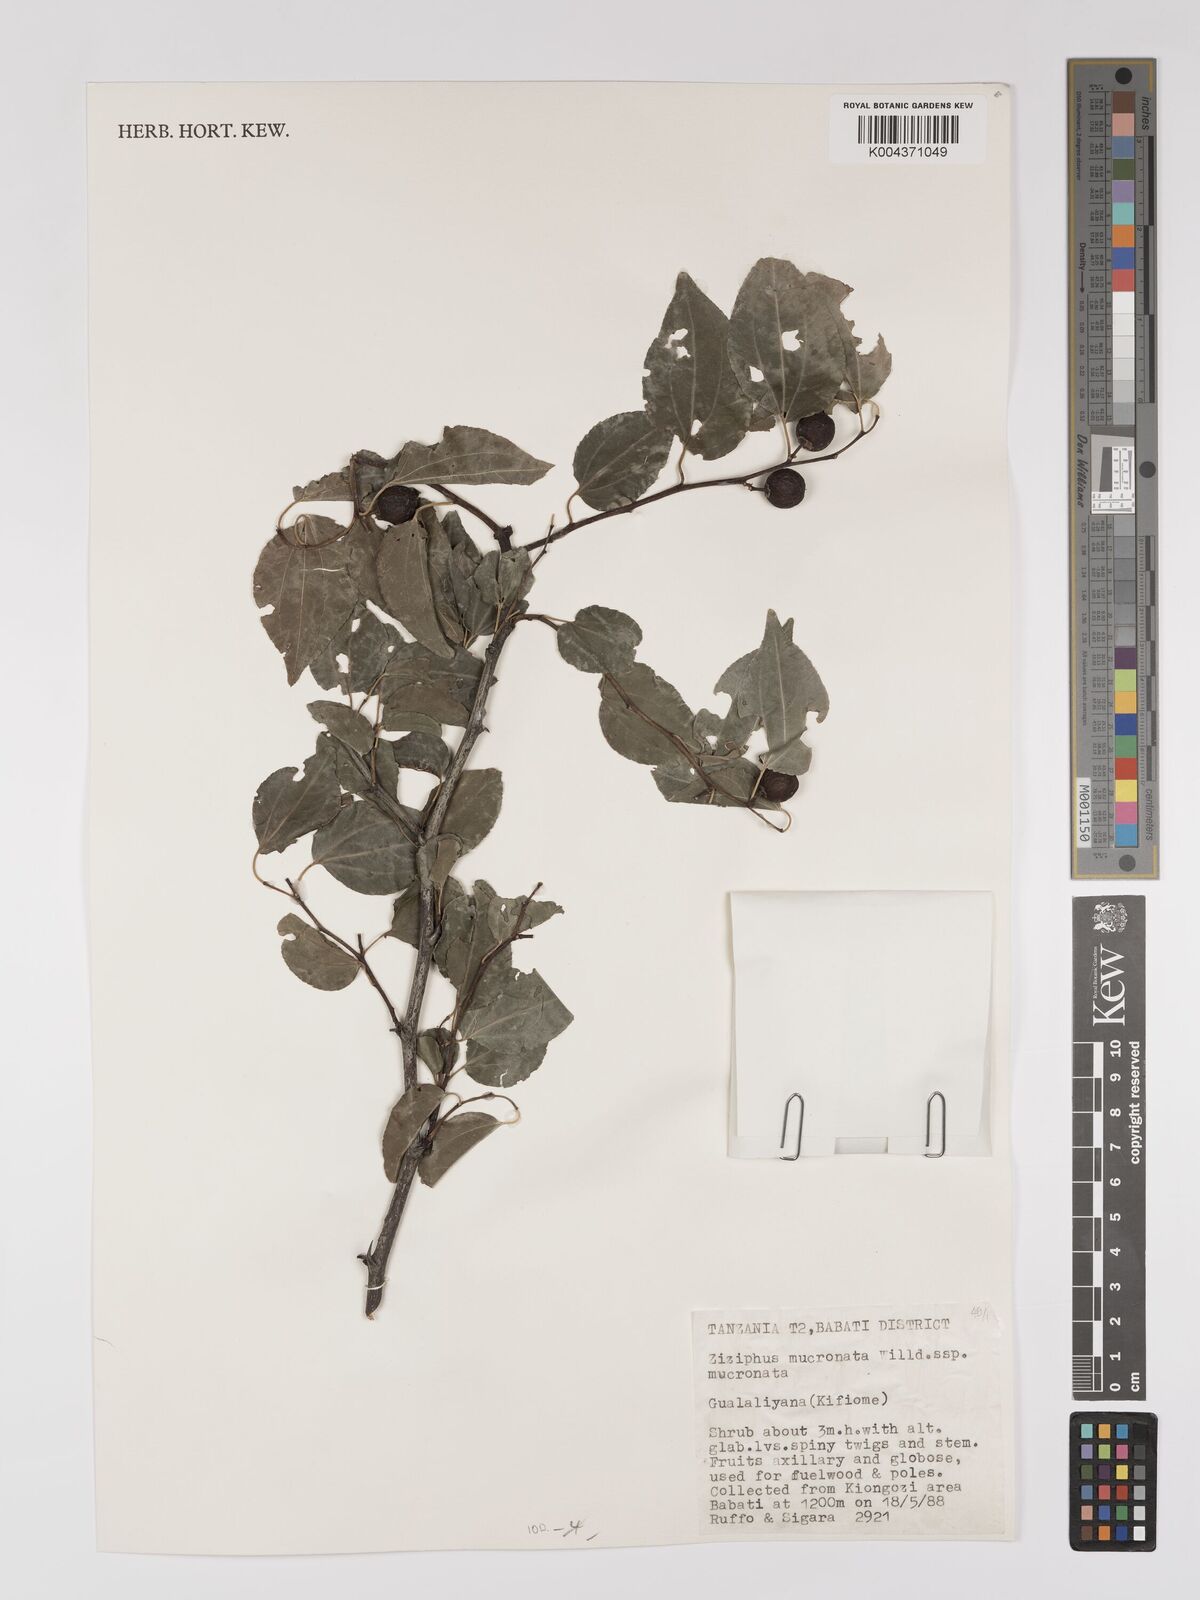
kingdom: Plantae
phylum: Tracheophyta
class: Magnoliopsida
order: Rosales
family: Rhamnaceae
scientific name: Rhamnaceae
